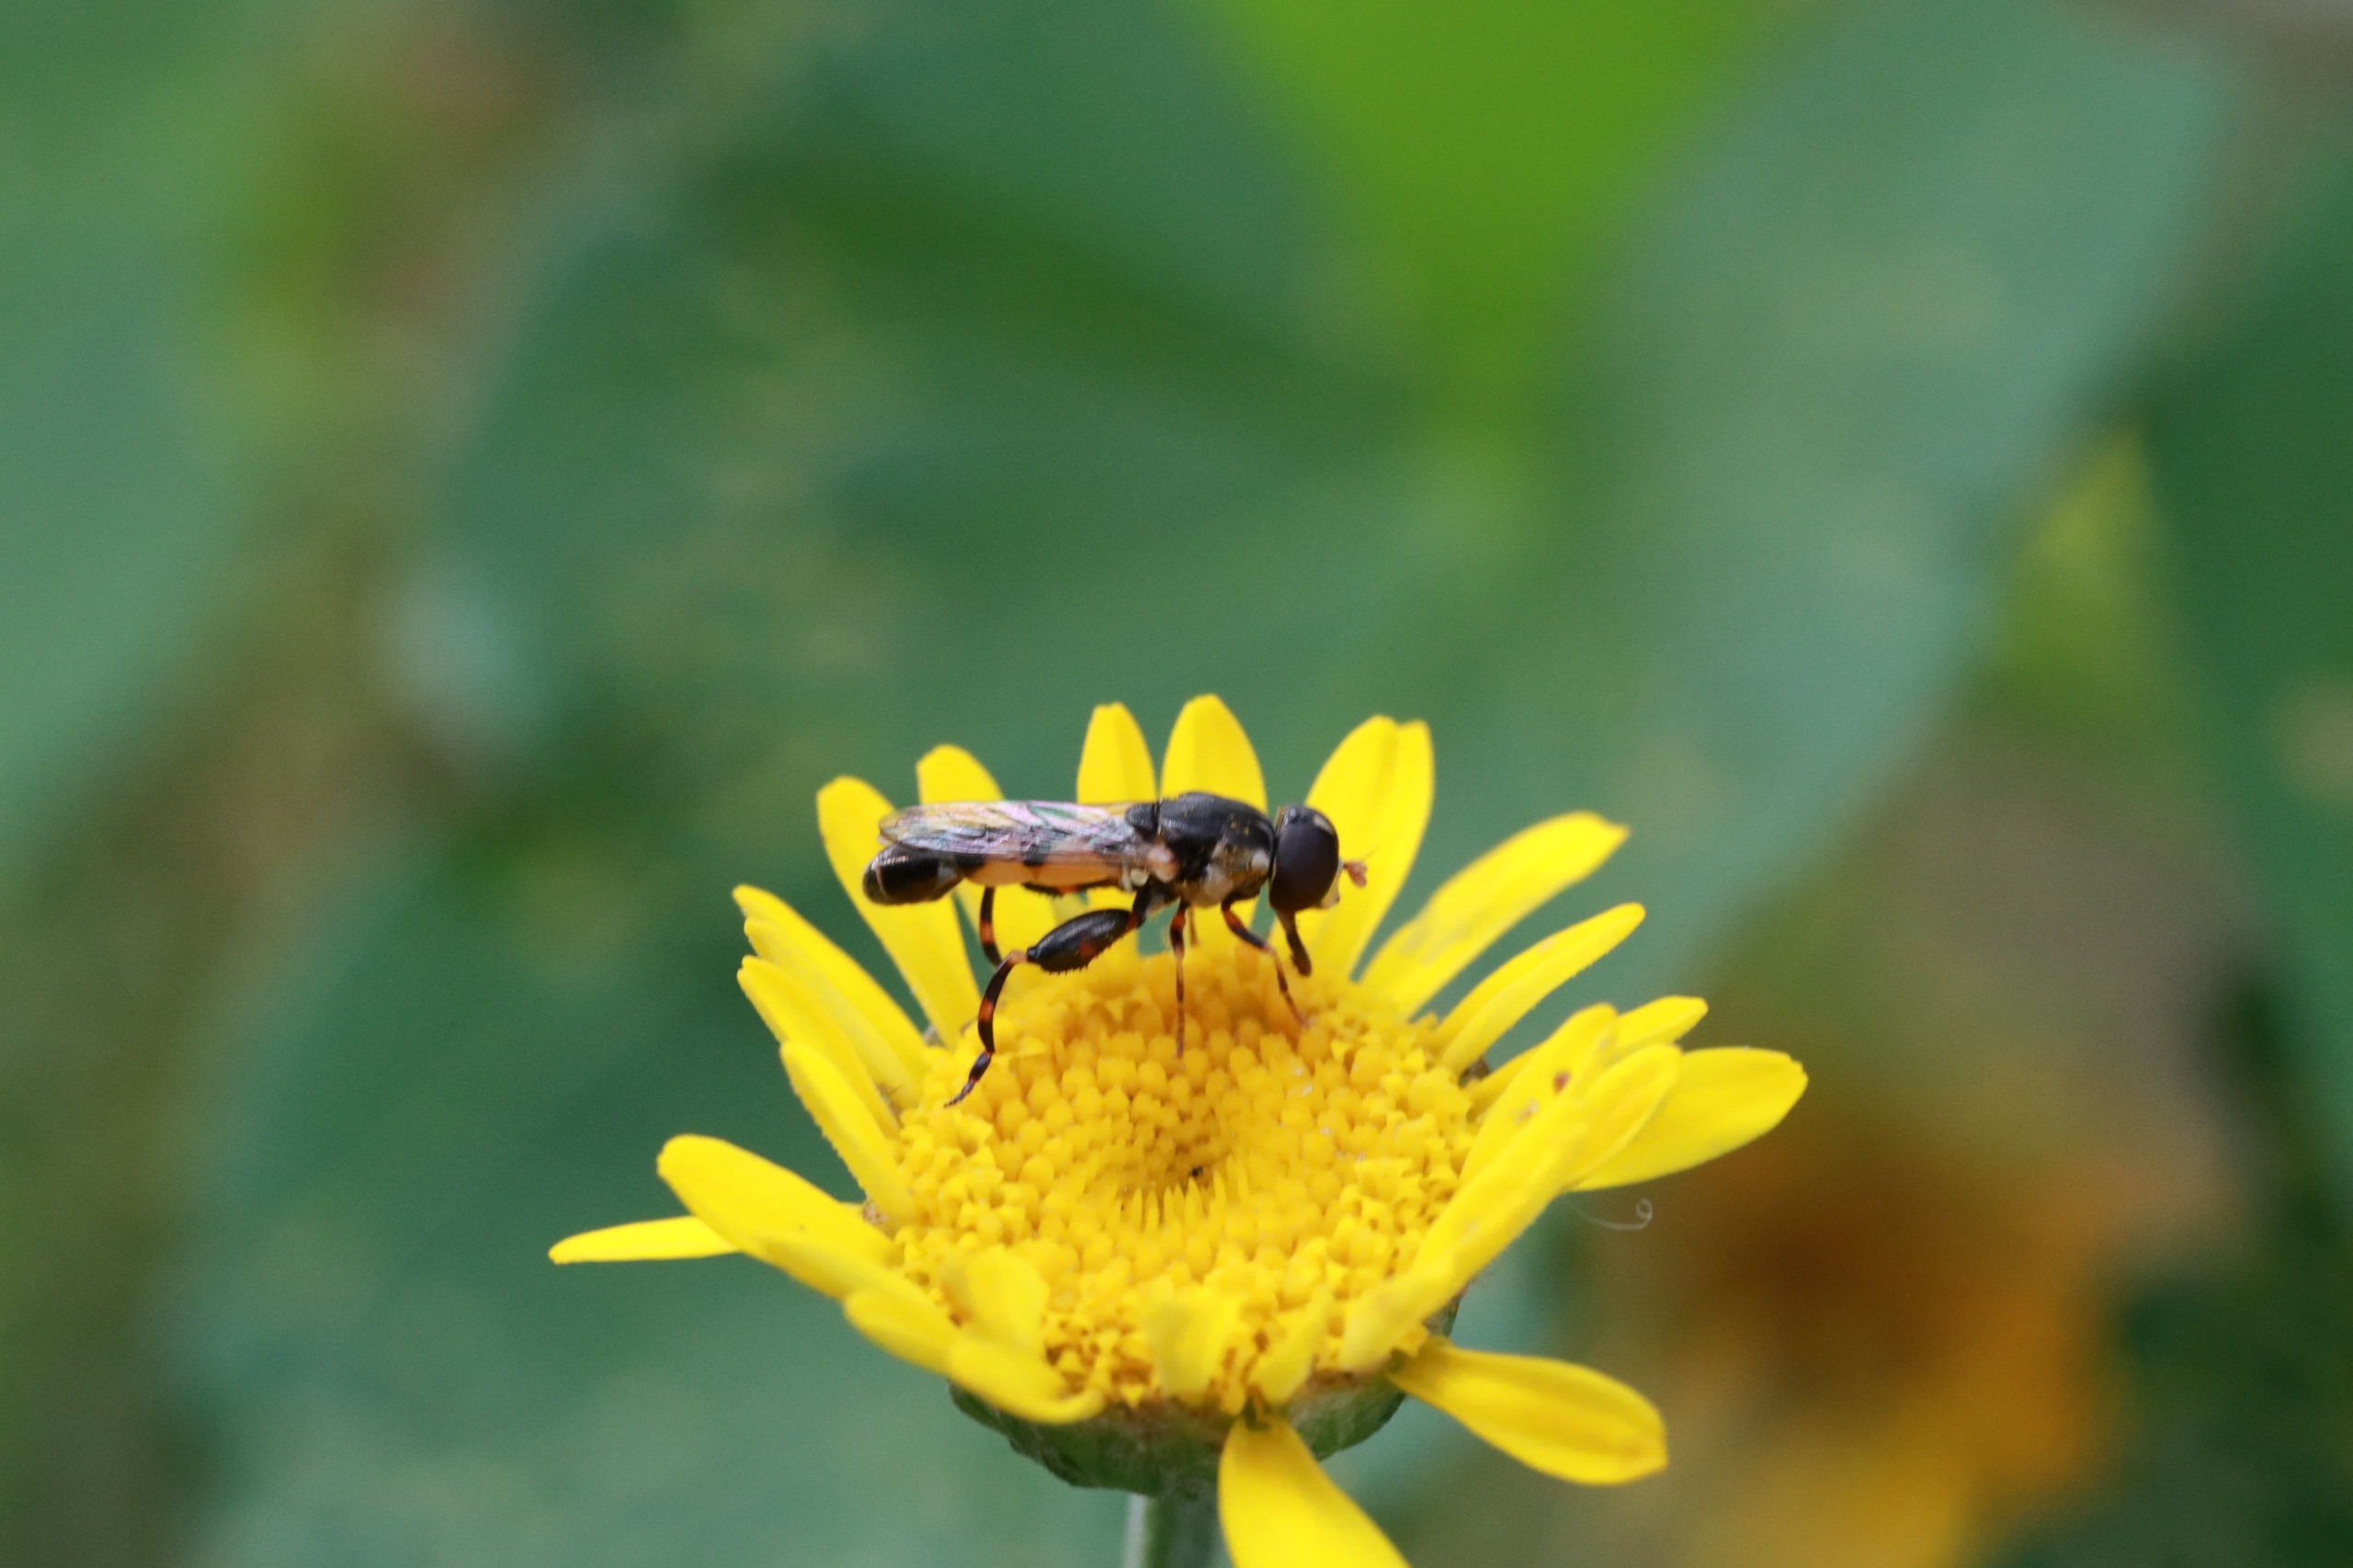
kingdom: Animalia
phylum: Arthropoda
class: Insecta
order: Diptera
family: Syrphidae
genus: Syritta
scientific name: Syritta pipiens
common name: Kompost-svirreflue
